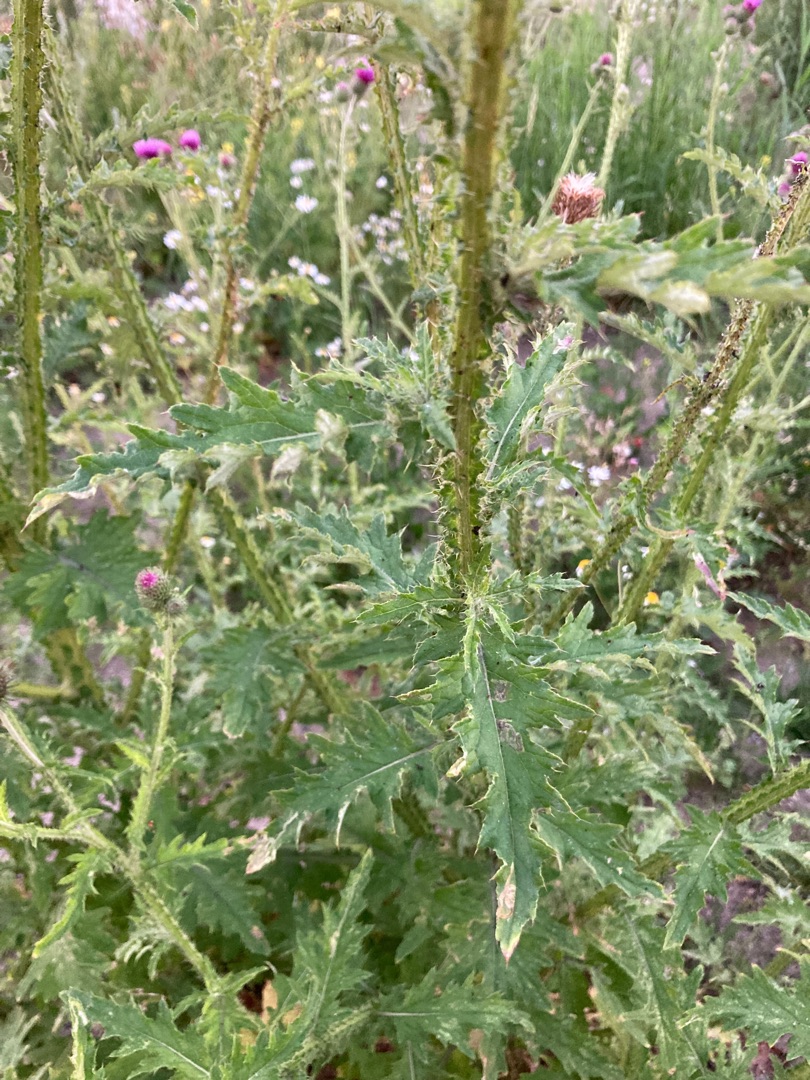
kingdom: Plantae
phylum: Tracheophyta
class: Magnoliopsida
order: Asterales
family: Asteraceae
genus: Carduus
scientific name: Carduus crispus
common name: Kruset tidsel
